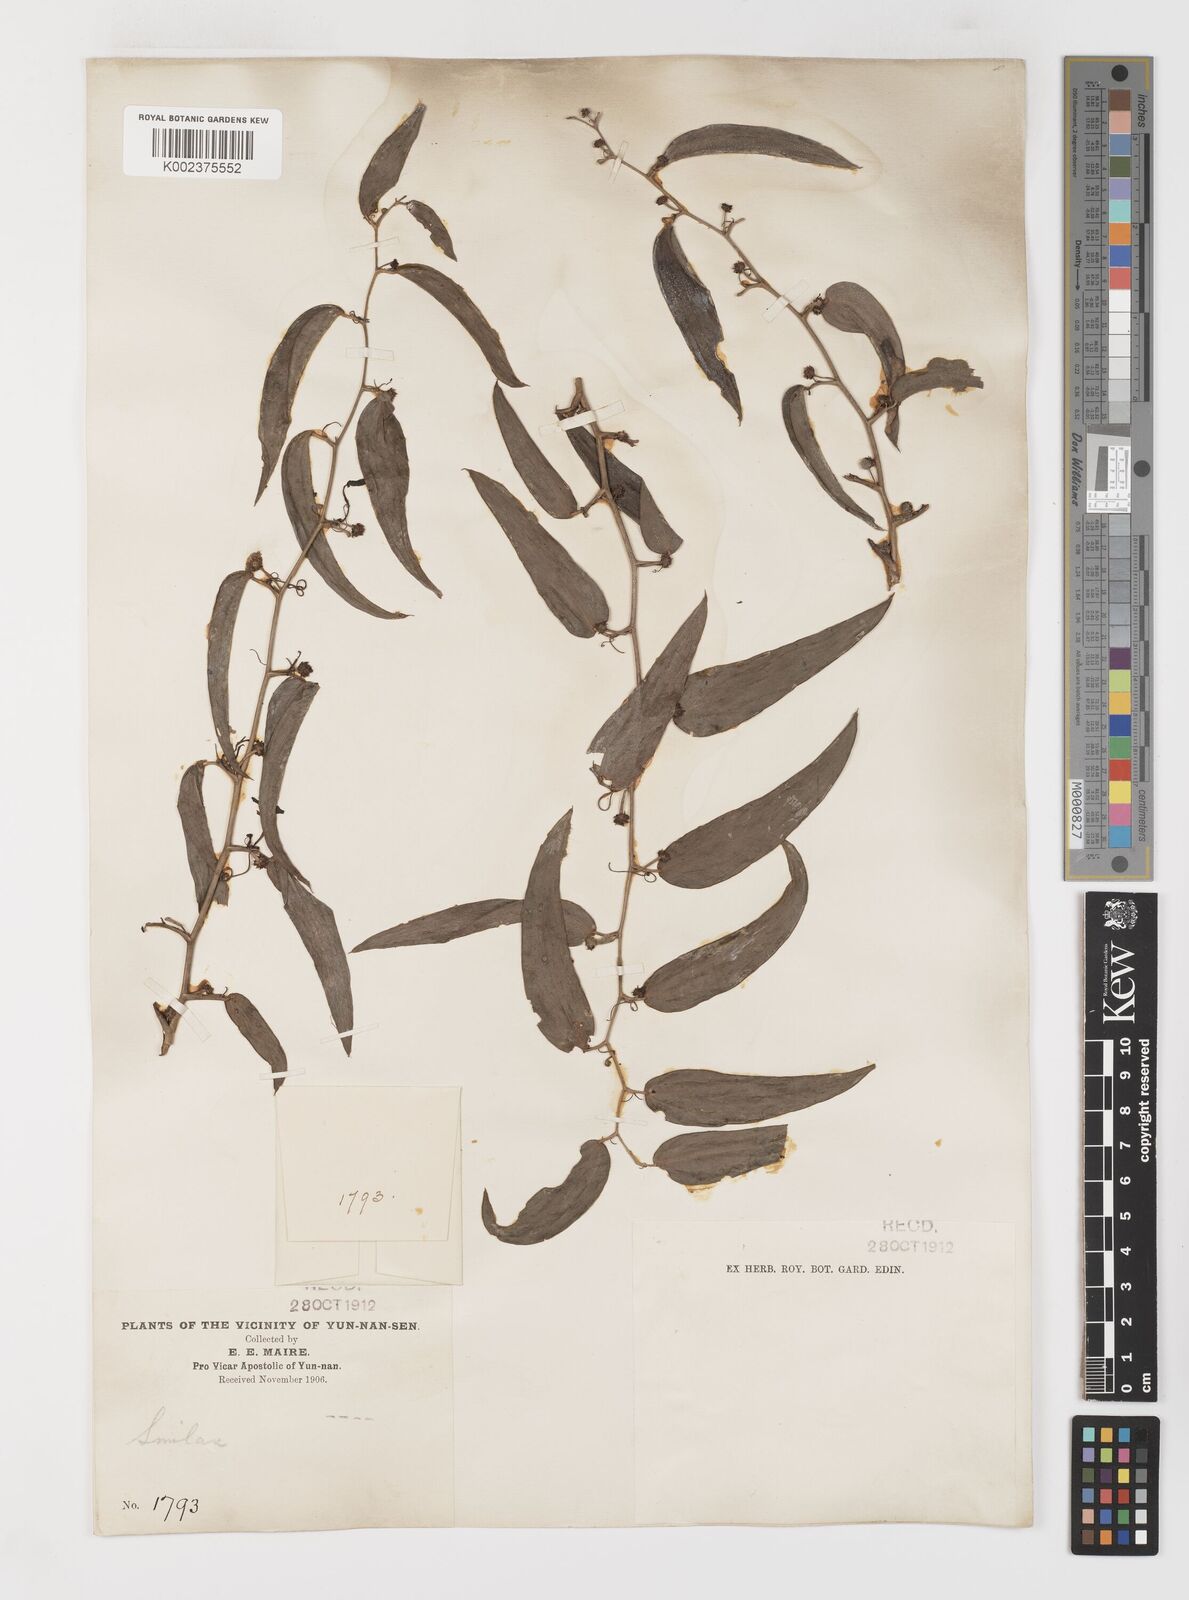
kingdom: Plantae
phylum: Tracheophyta
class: Liliopsida
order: Liliales
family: Smilacaceae
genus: Smilax
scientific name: Smilax lanceifolia
